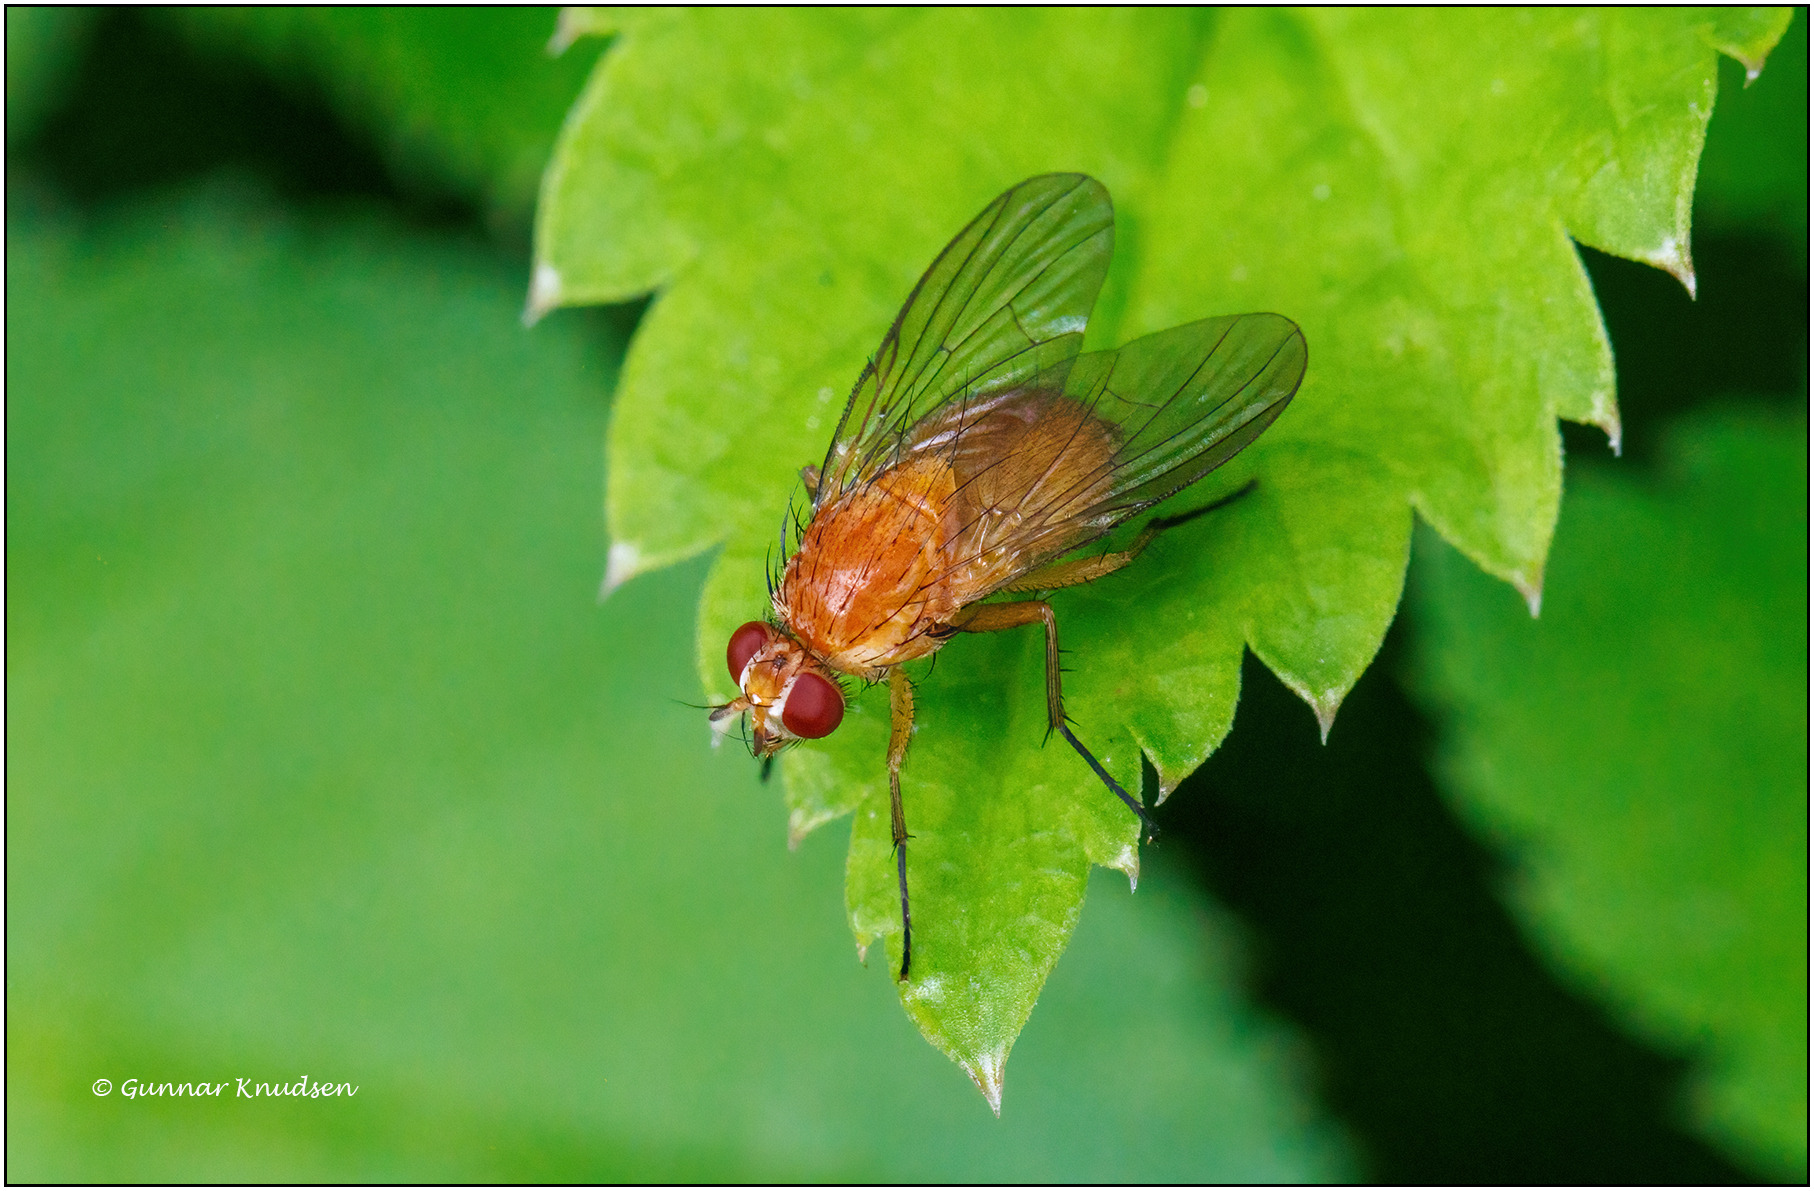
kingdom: Animalia
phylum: Arthropoda
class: Insecta
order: Diptera
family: Muscidae
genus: Phaonia
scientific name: Phaonia pallida
